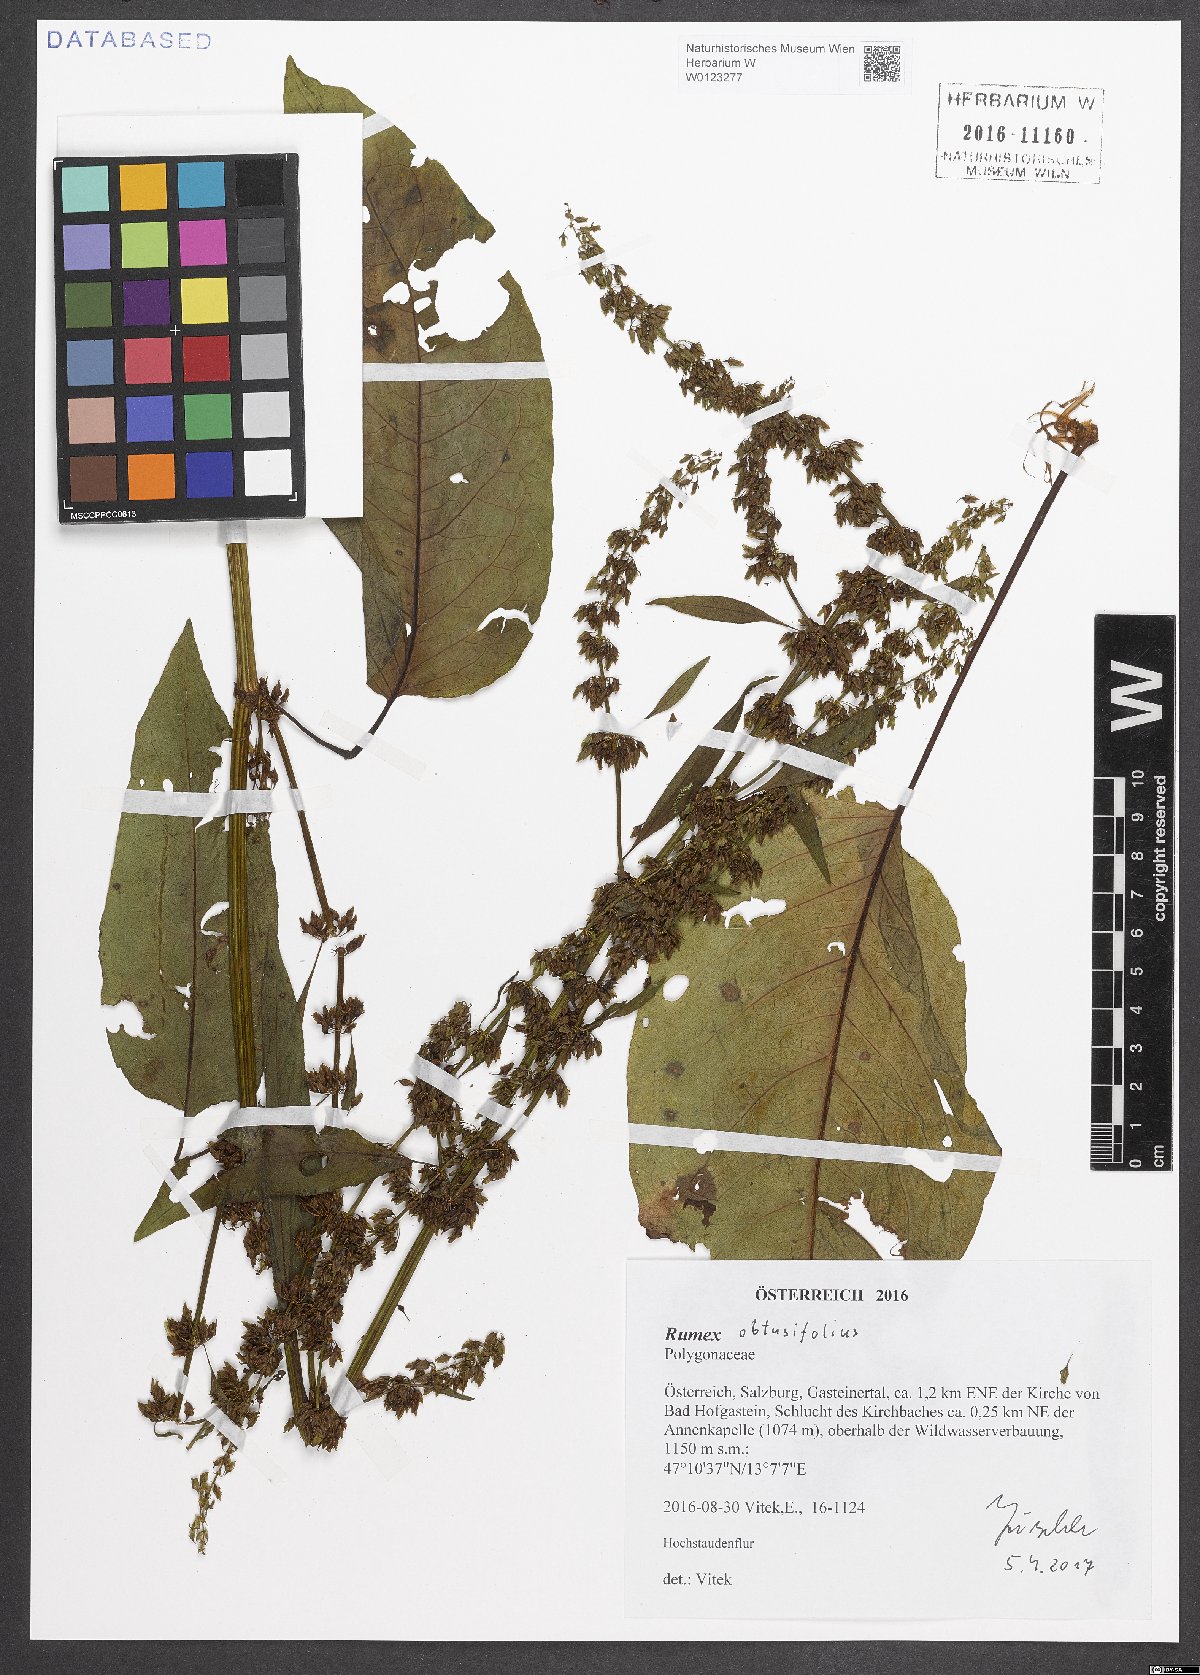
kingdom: Plantae
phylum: Tracheophyta
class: Magnoliopsida
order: Caryophyllales
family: Polygonaceae
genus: Rumex
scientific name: Rumex obtusifolius
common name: Bitter dock
